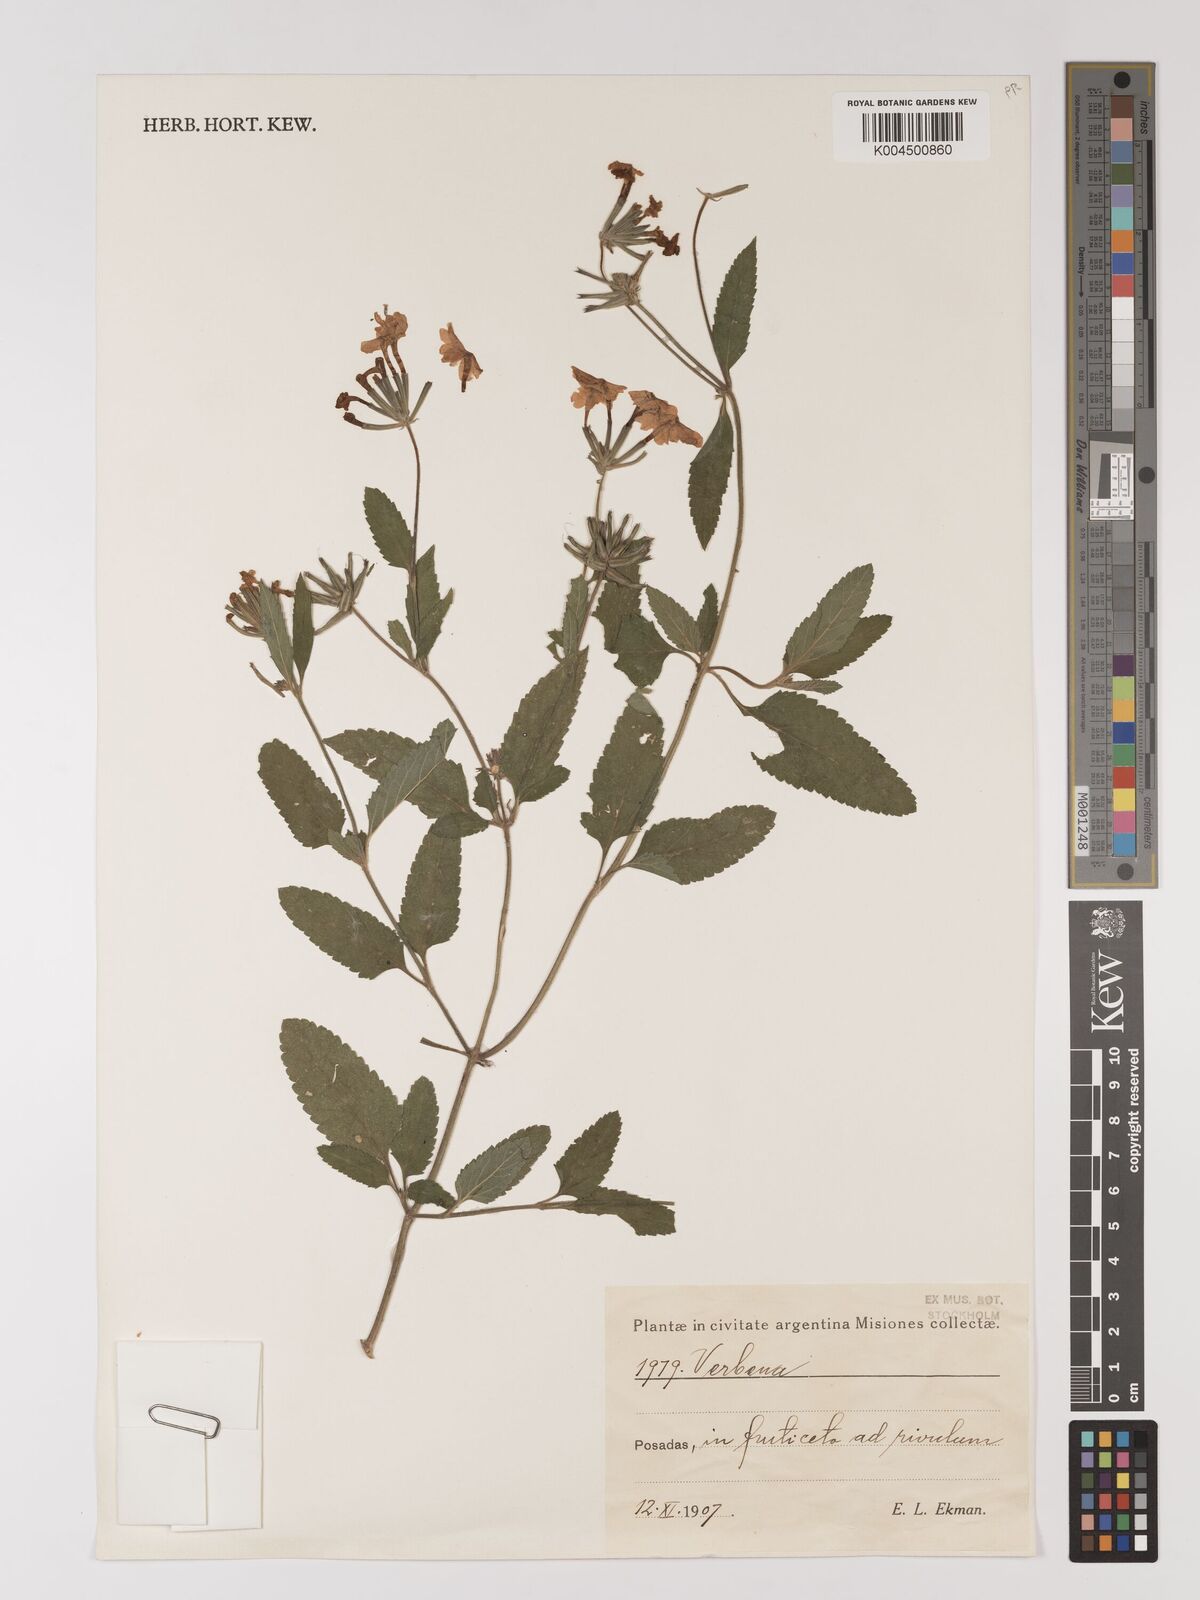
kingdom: Plantae
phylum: Tracheophyta
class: Magnoliopsida
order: Lamiales
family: Verbenaceae
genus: Verbena
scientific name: Verbena
